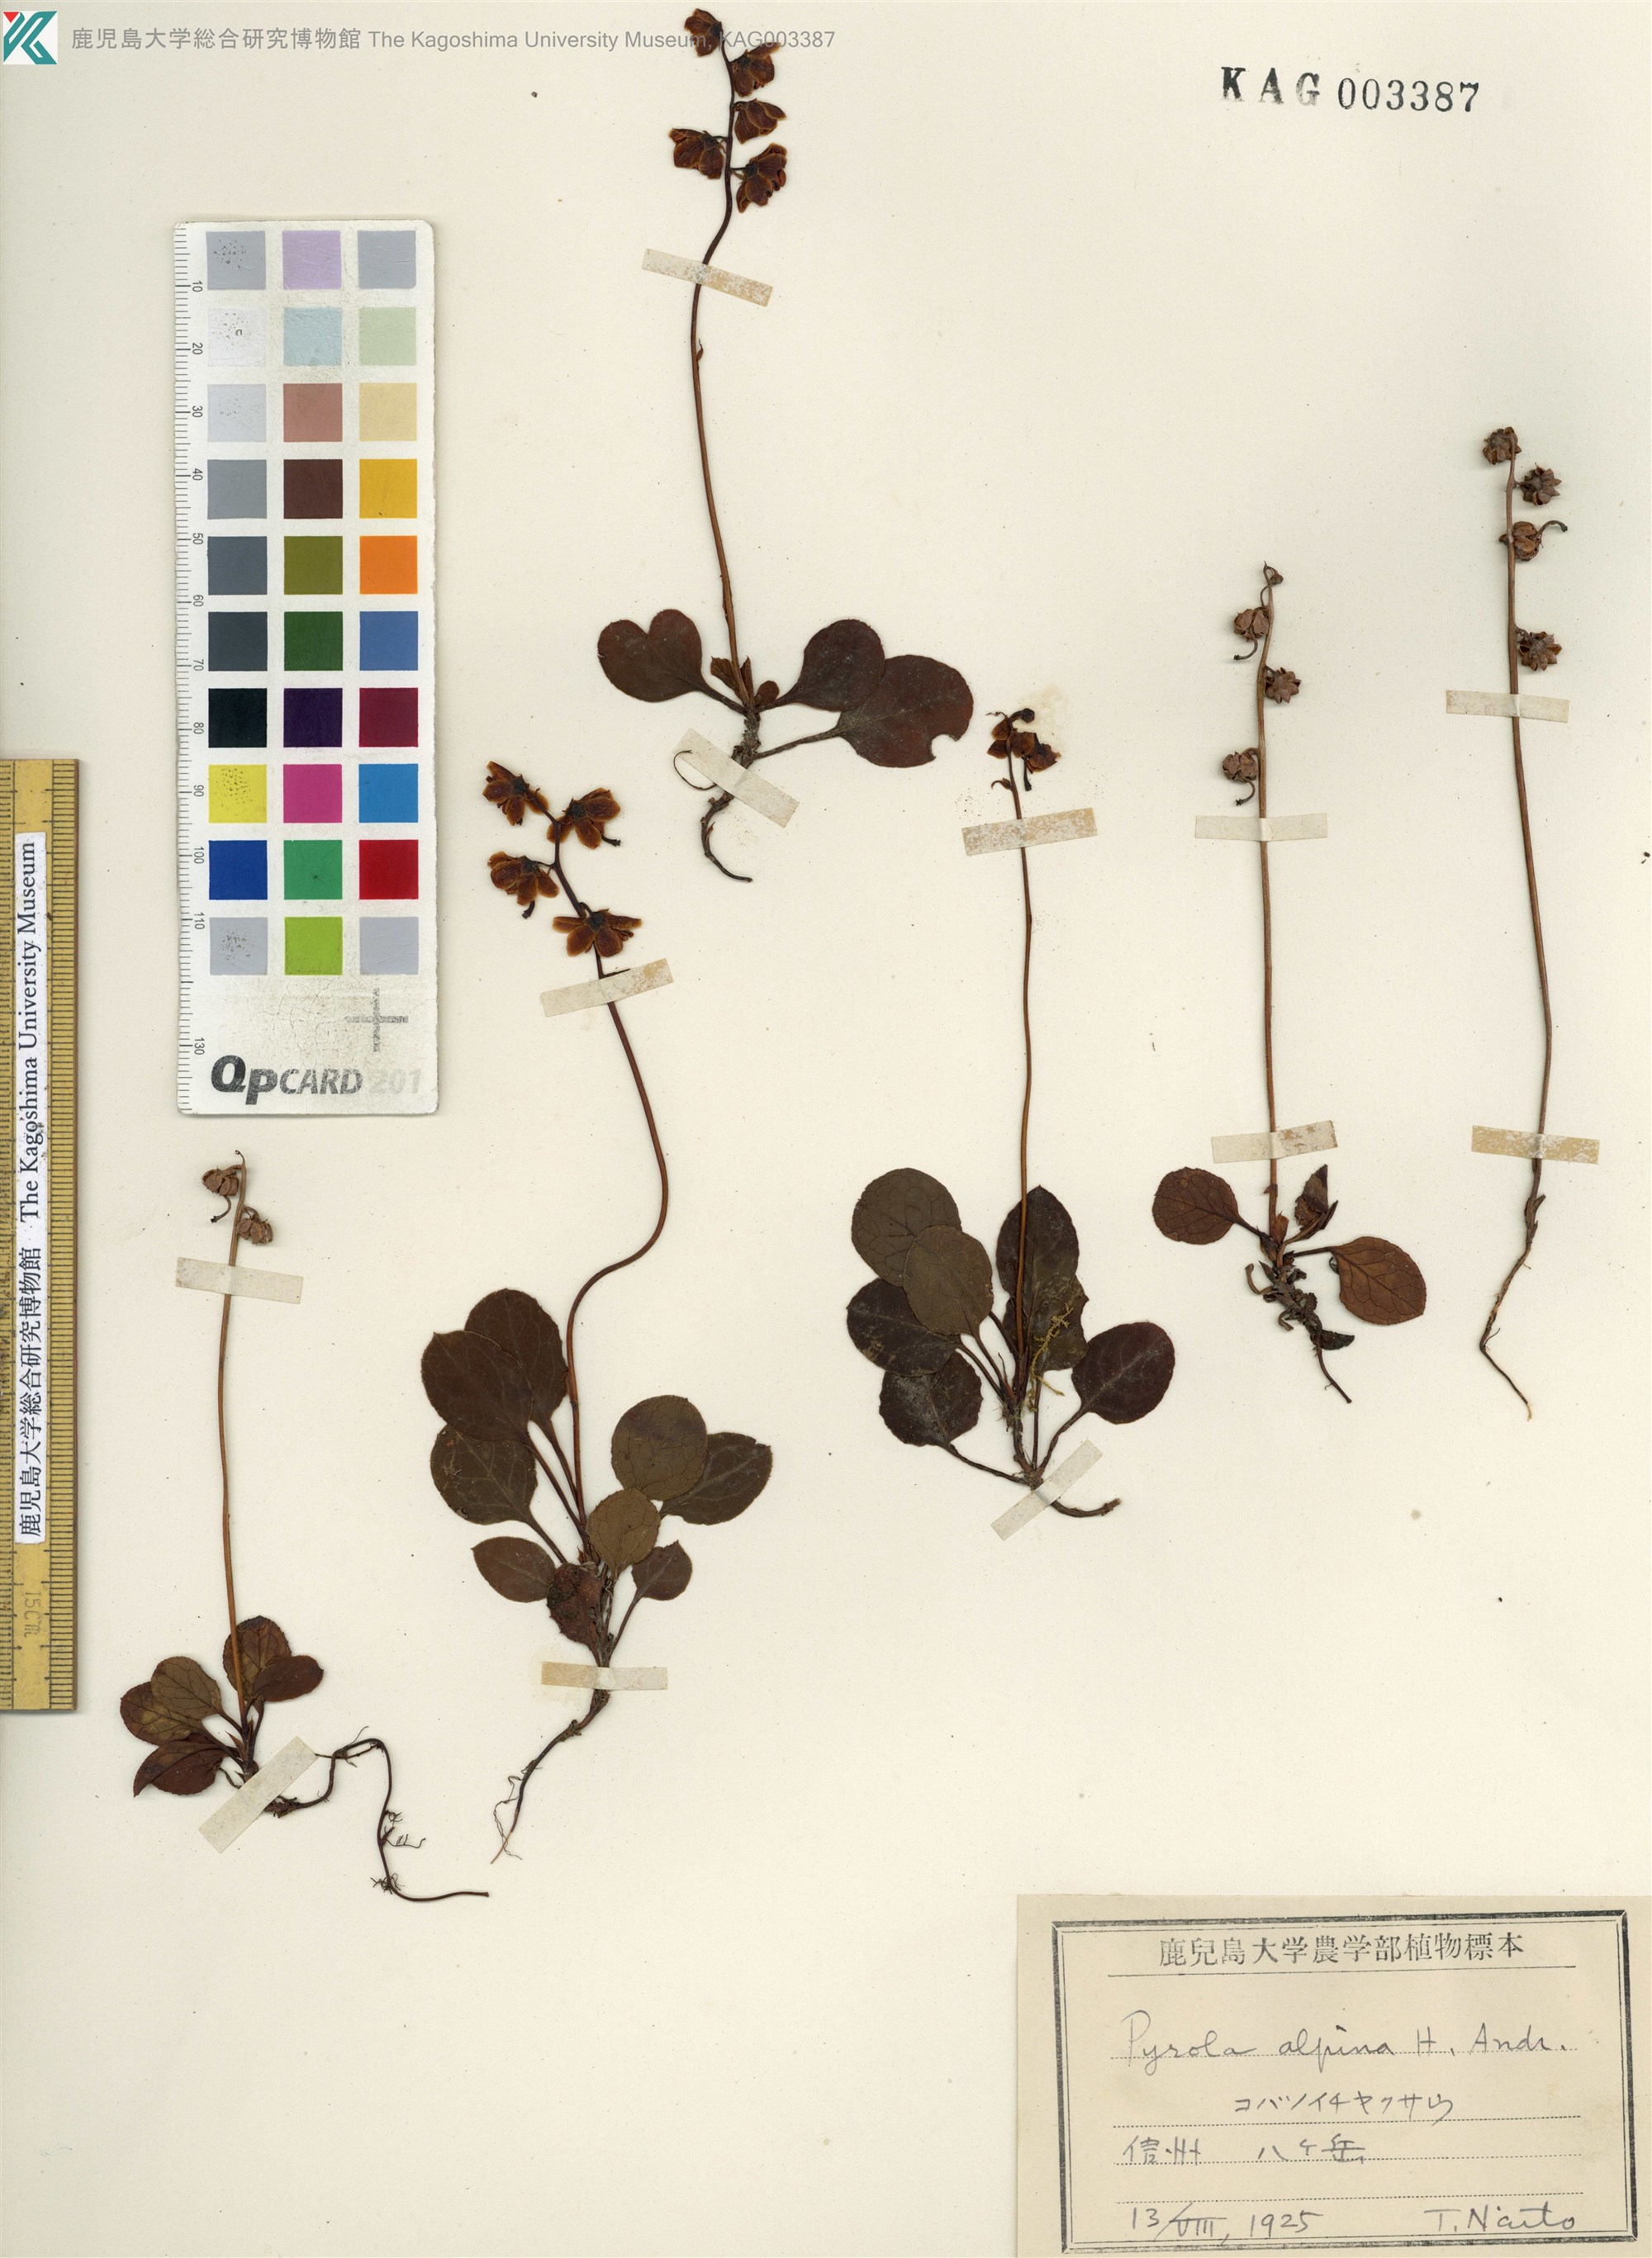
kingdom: Plantae
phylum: Tracheophyta
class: Magnoliopsida
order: Ericales
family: Ericaceae
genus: Pyrola
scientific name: Pyrola alpina
